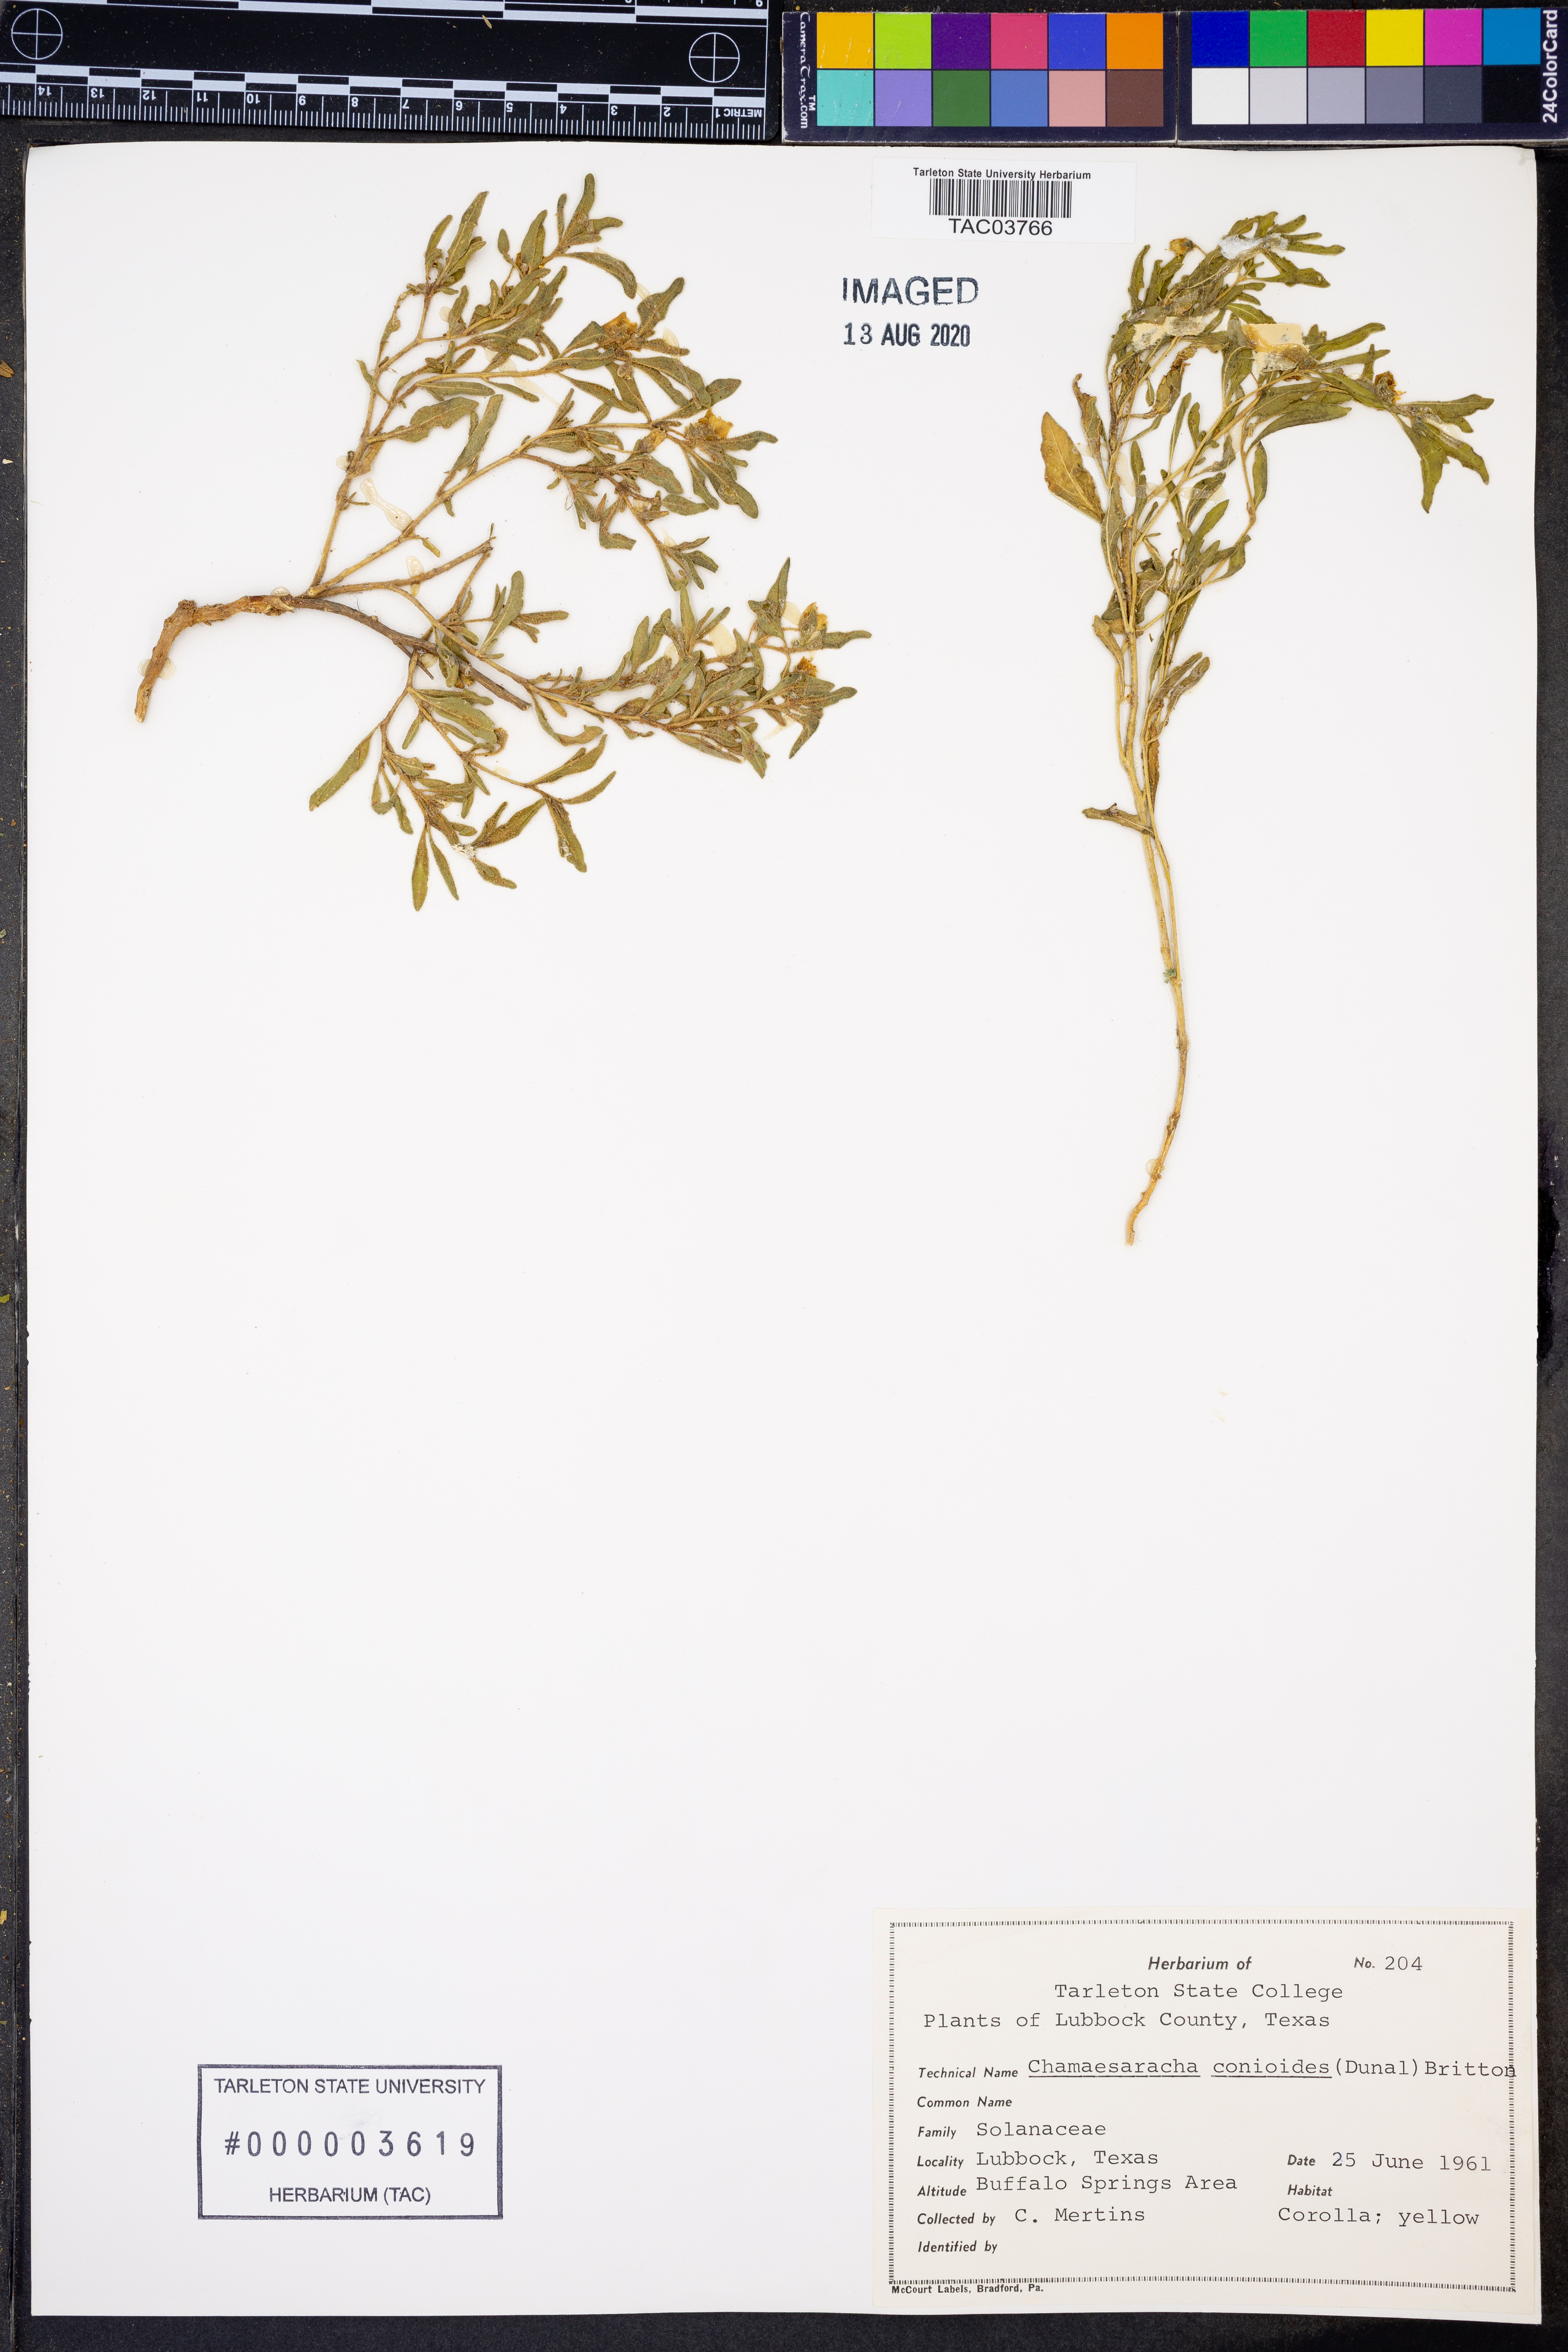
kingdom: Plantae
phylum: Tracheophyta
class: Magnoliopsida
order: Solanales
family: Solanaceae
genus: Chamaesaracha
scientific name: Chamaesaracha conioides
